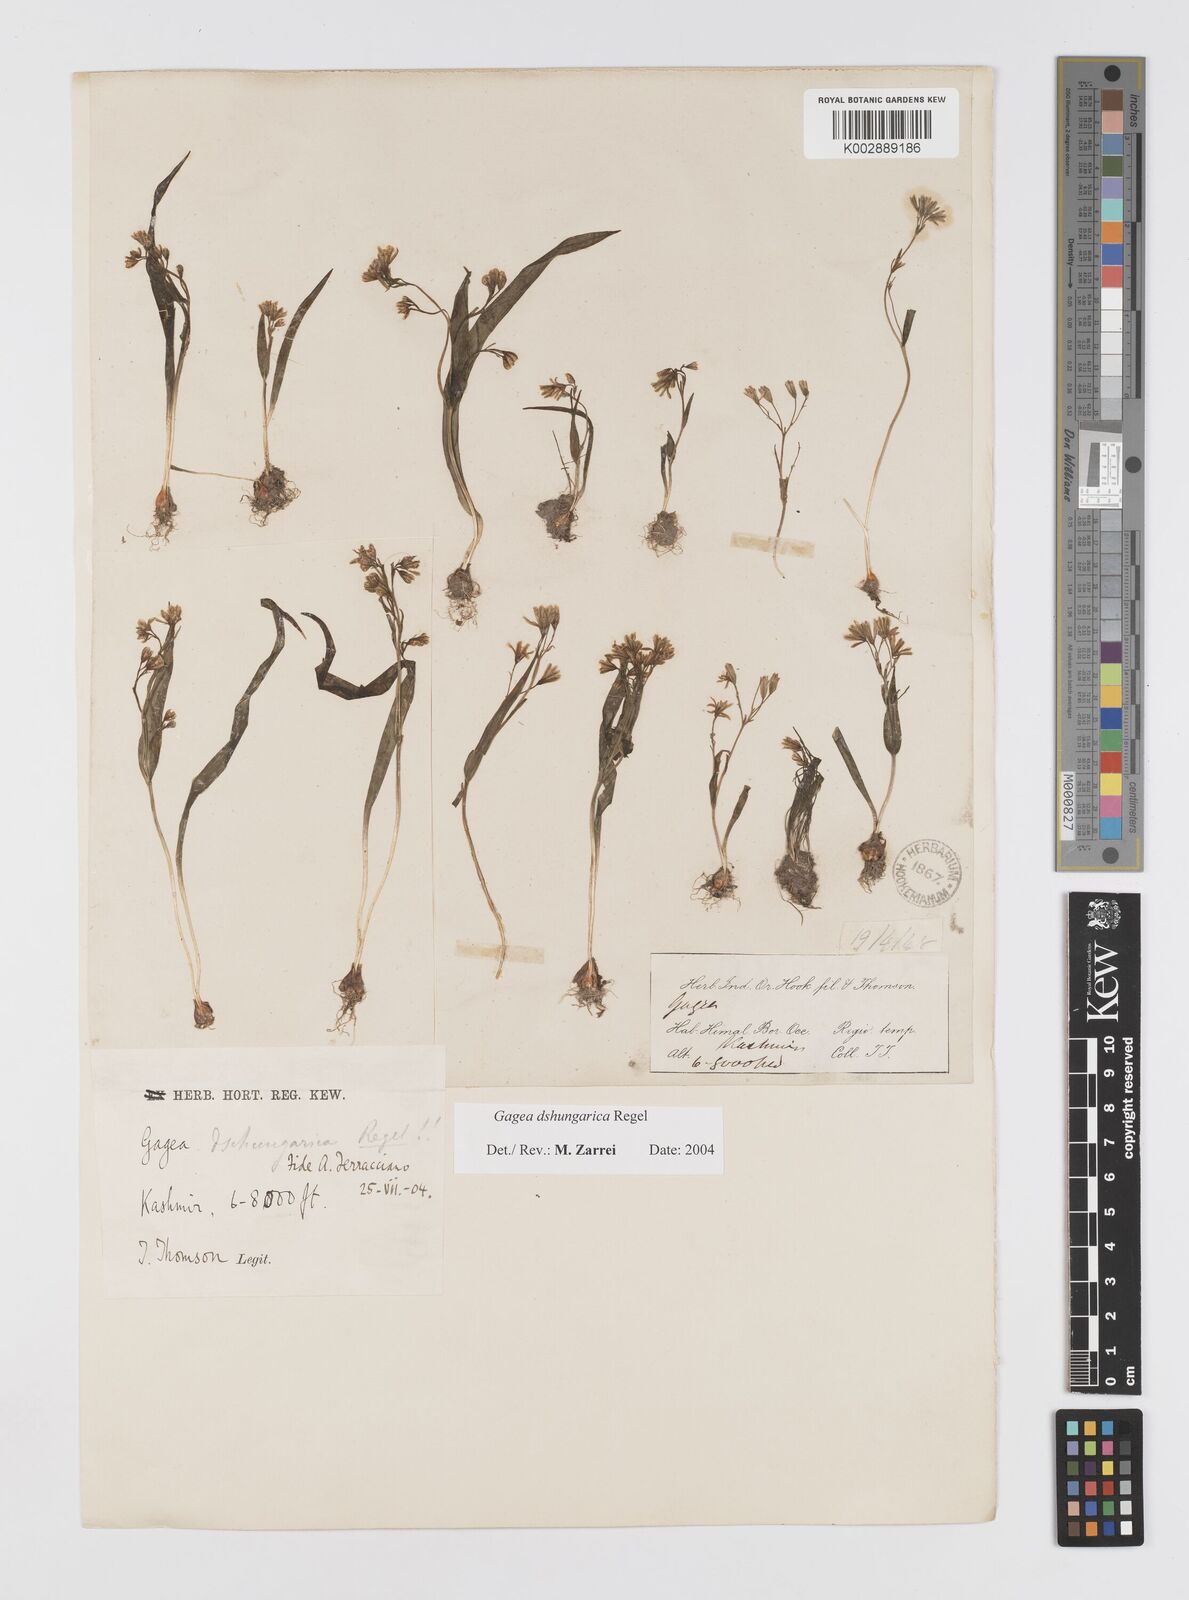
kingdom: Plantae
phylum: Tracheophyta
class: Liliopsida
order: Liliales
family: Liliaceae
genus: Gagea
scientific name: Gagea dschungarica
